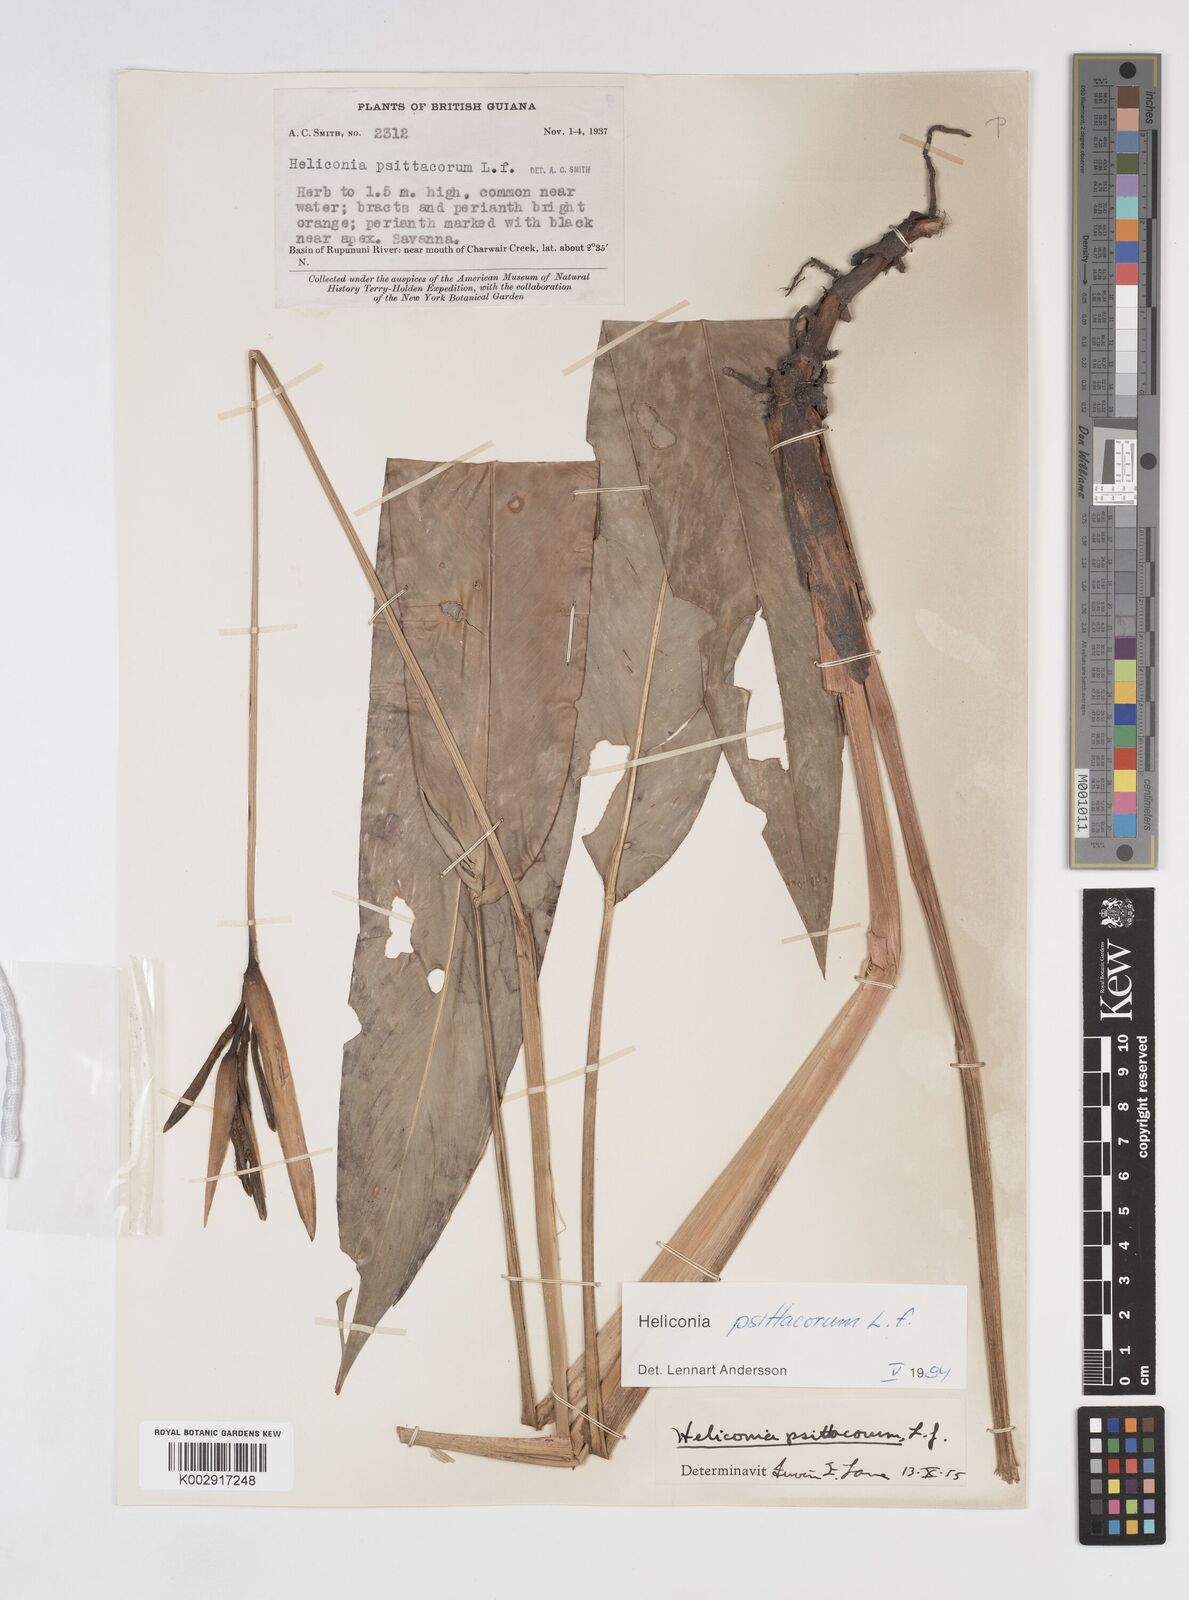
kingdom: Plantae
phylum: Tracheophyta
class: Liliopsida
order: Zingiberales
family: Heliconiaceae
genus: Heliconia
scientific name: Heliconia psittacorum
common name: Parrot's-flower
